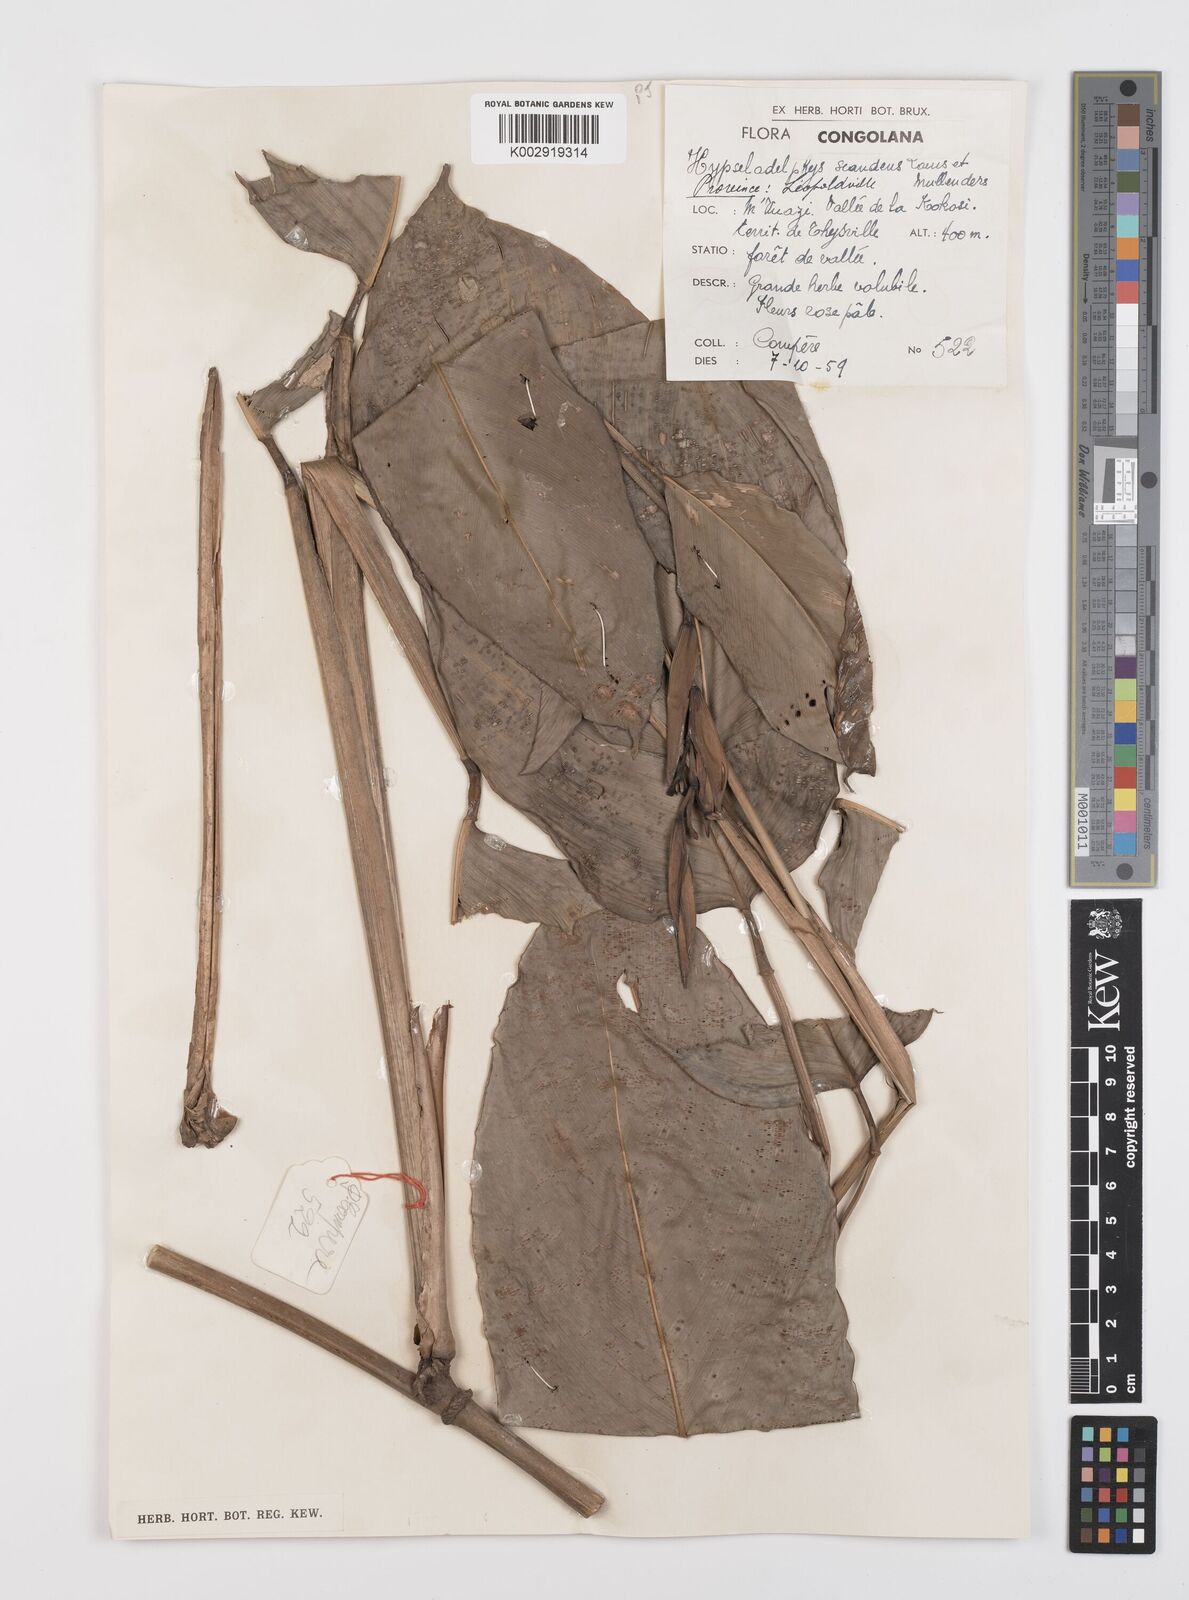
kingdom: Plantae
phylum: Tracheophyta
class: Liliopsida
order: Zingiberales
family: Marantaceae
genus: Hypselodelphys
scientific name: Hypselodelphys scandens
